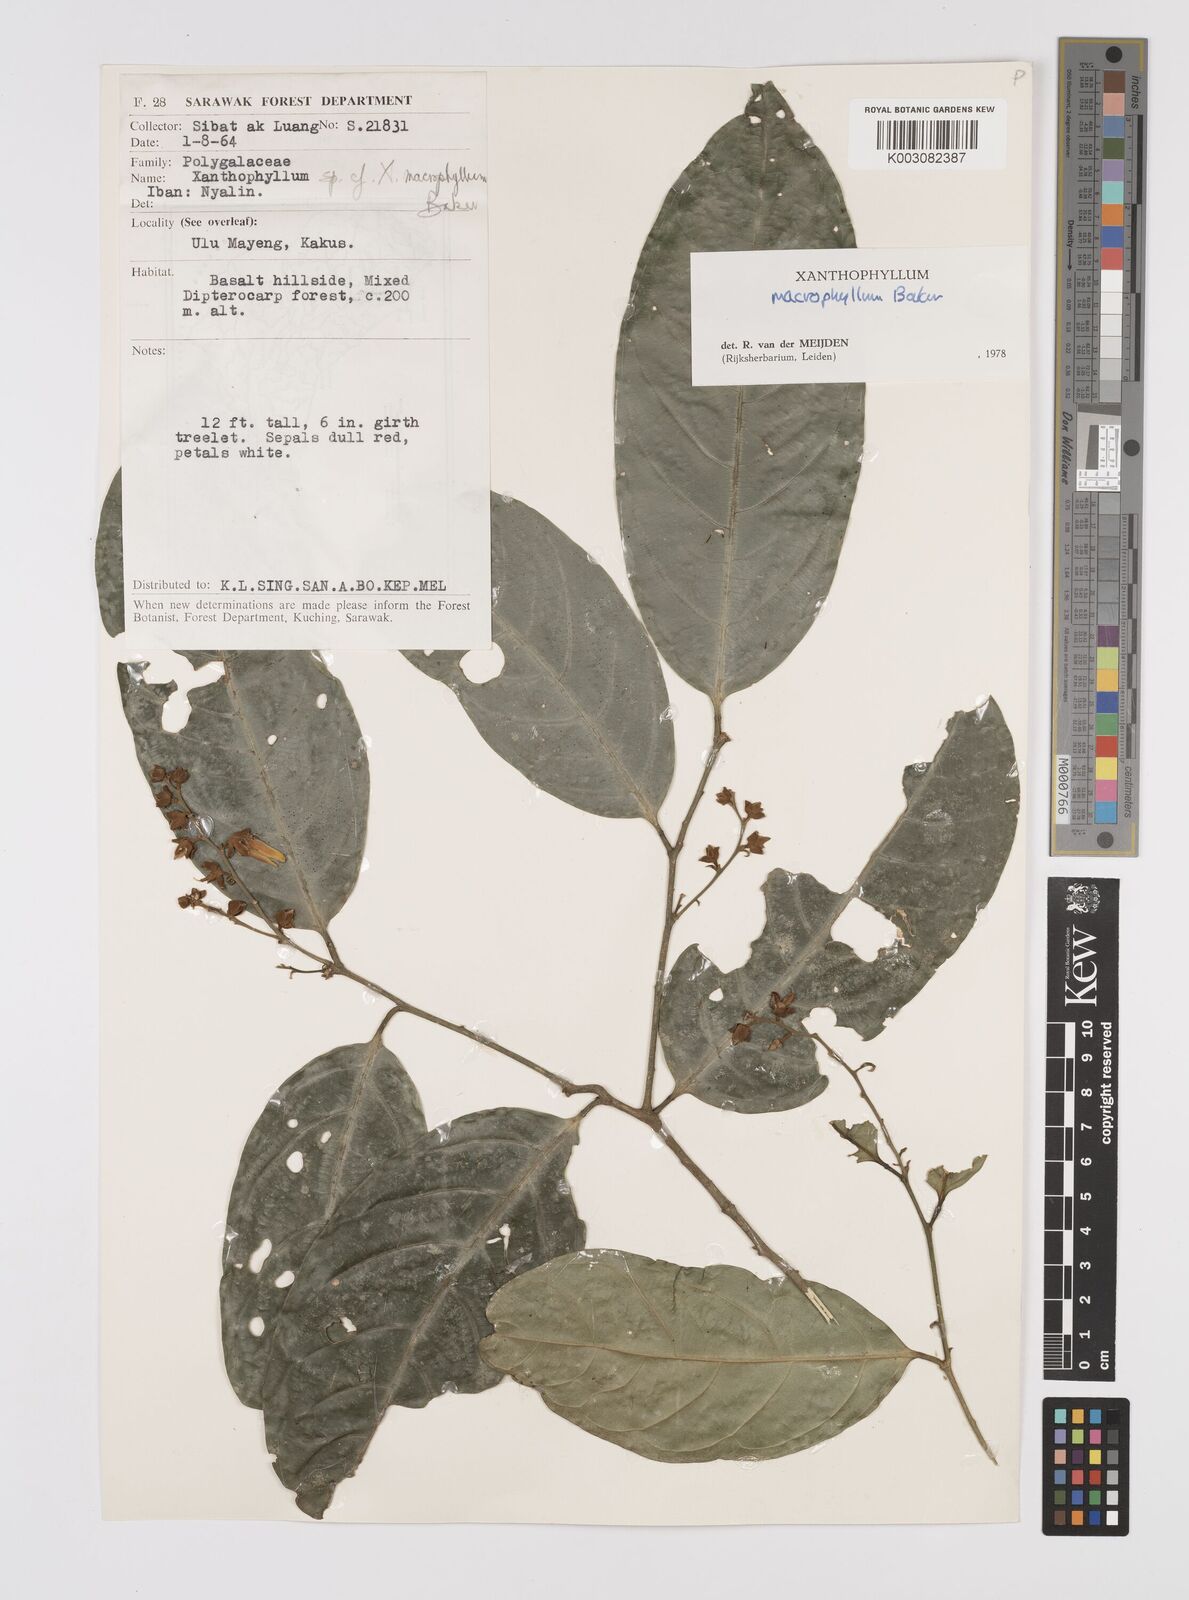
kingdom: Plantae
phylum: Tracheophyta
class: Magnoliopsida
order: Fabales
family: Polygalaceae
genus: Xanthophyllum
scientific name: Xanthophyllum macrophyllum
